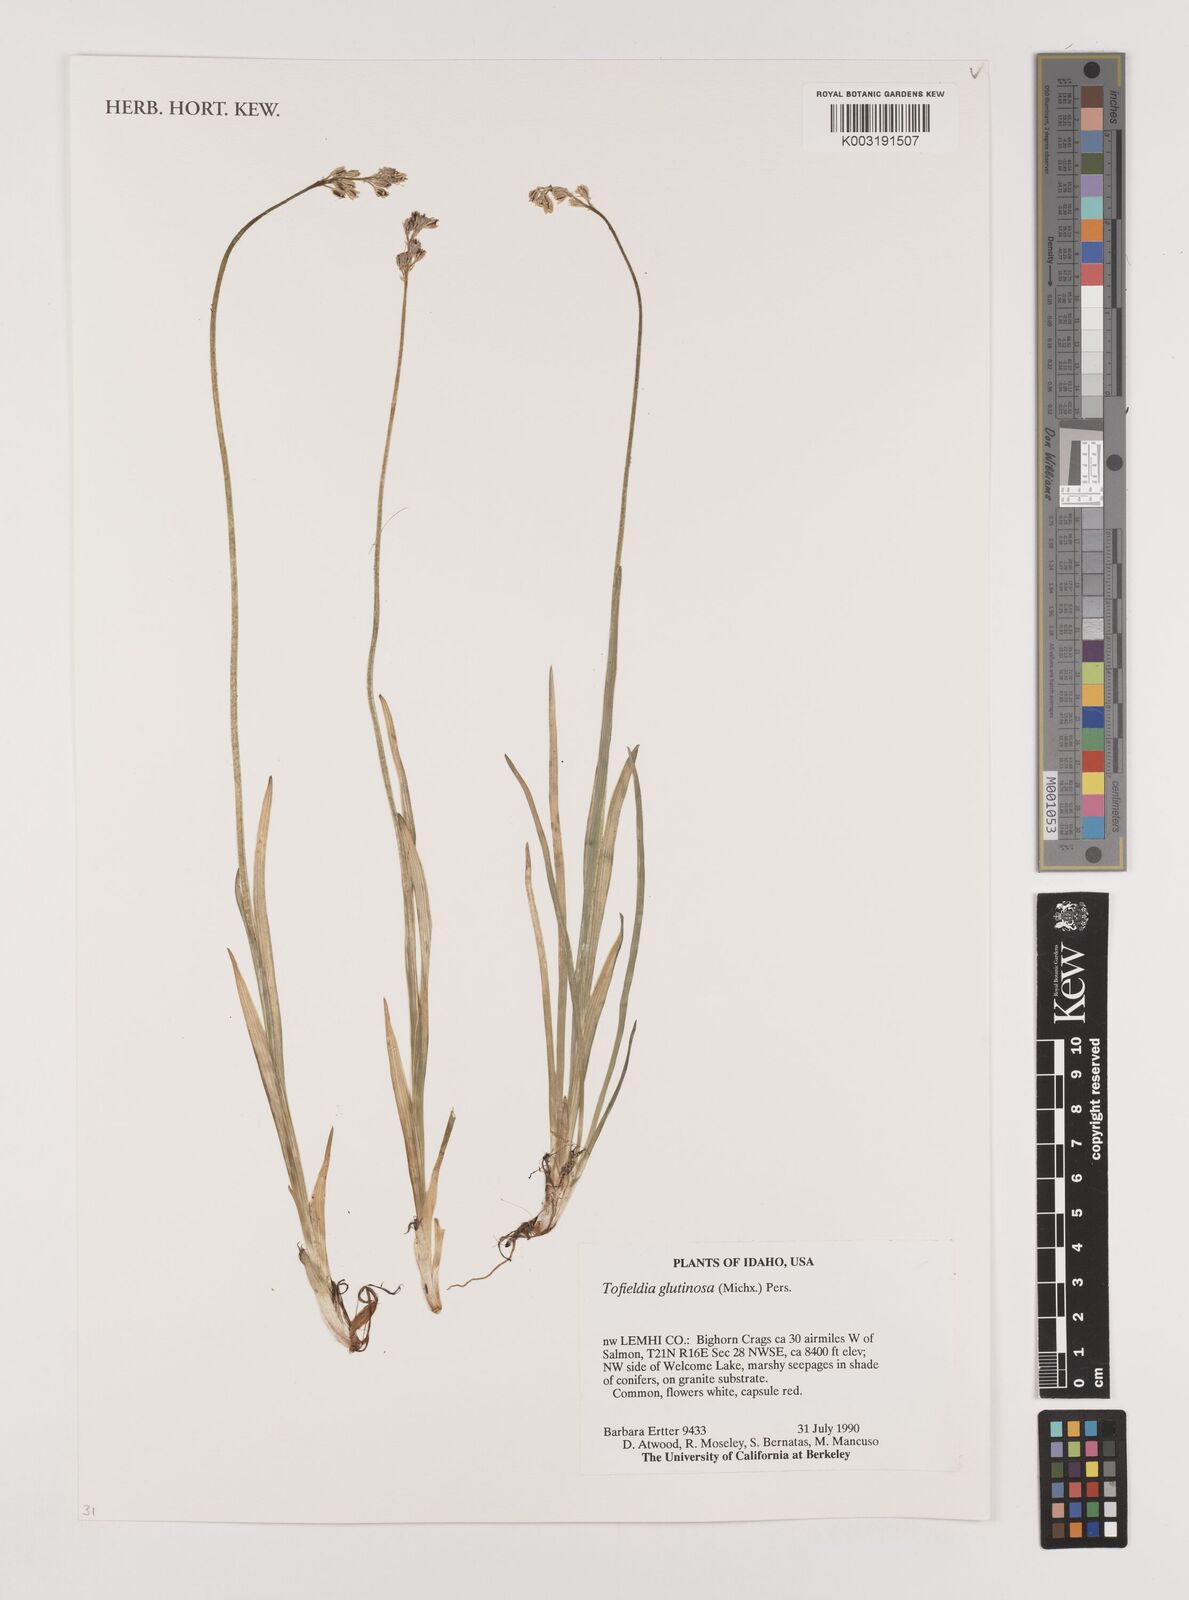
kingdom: Plantae
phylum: Tracheophyta
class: Liliopsida
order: Alismatales
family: Tofieldiaceae
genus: Triantha
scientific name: Triantha glutinosa
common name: Glutinous tofieldia
